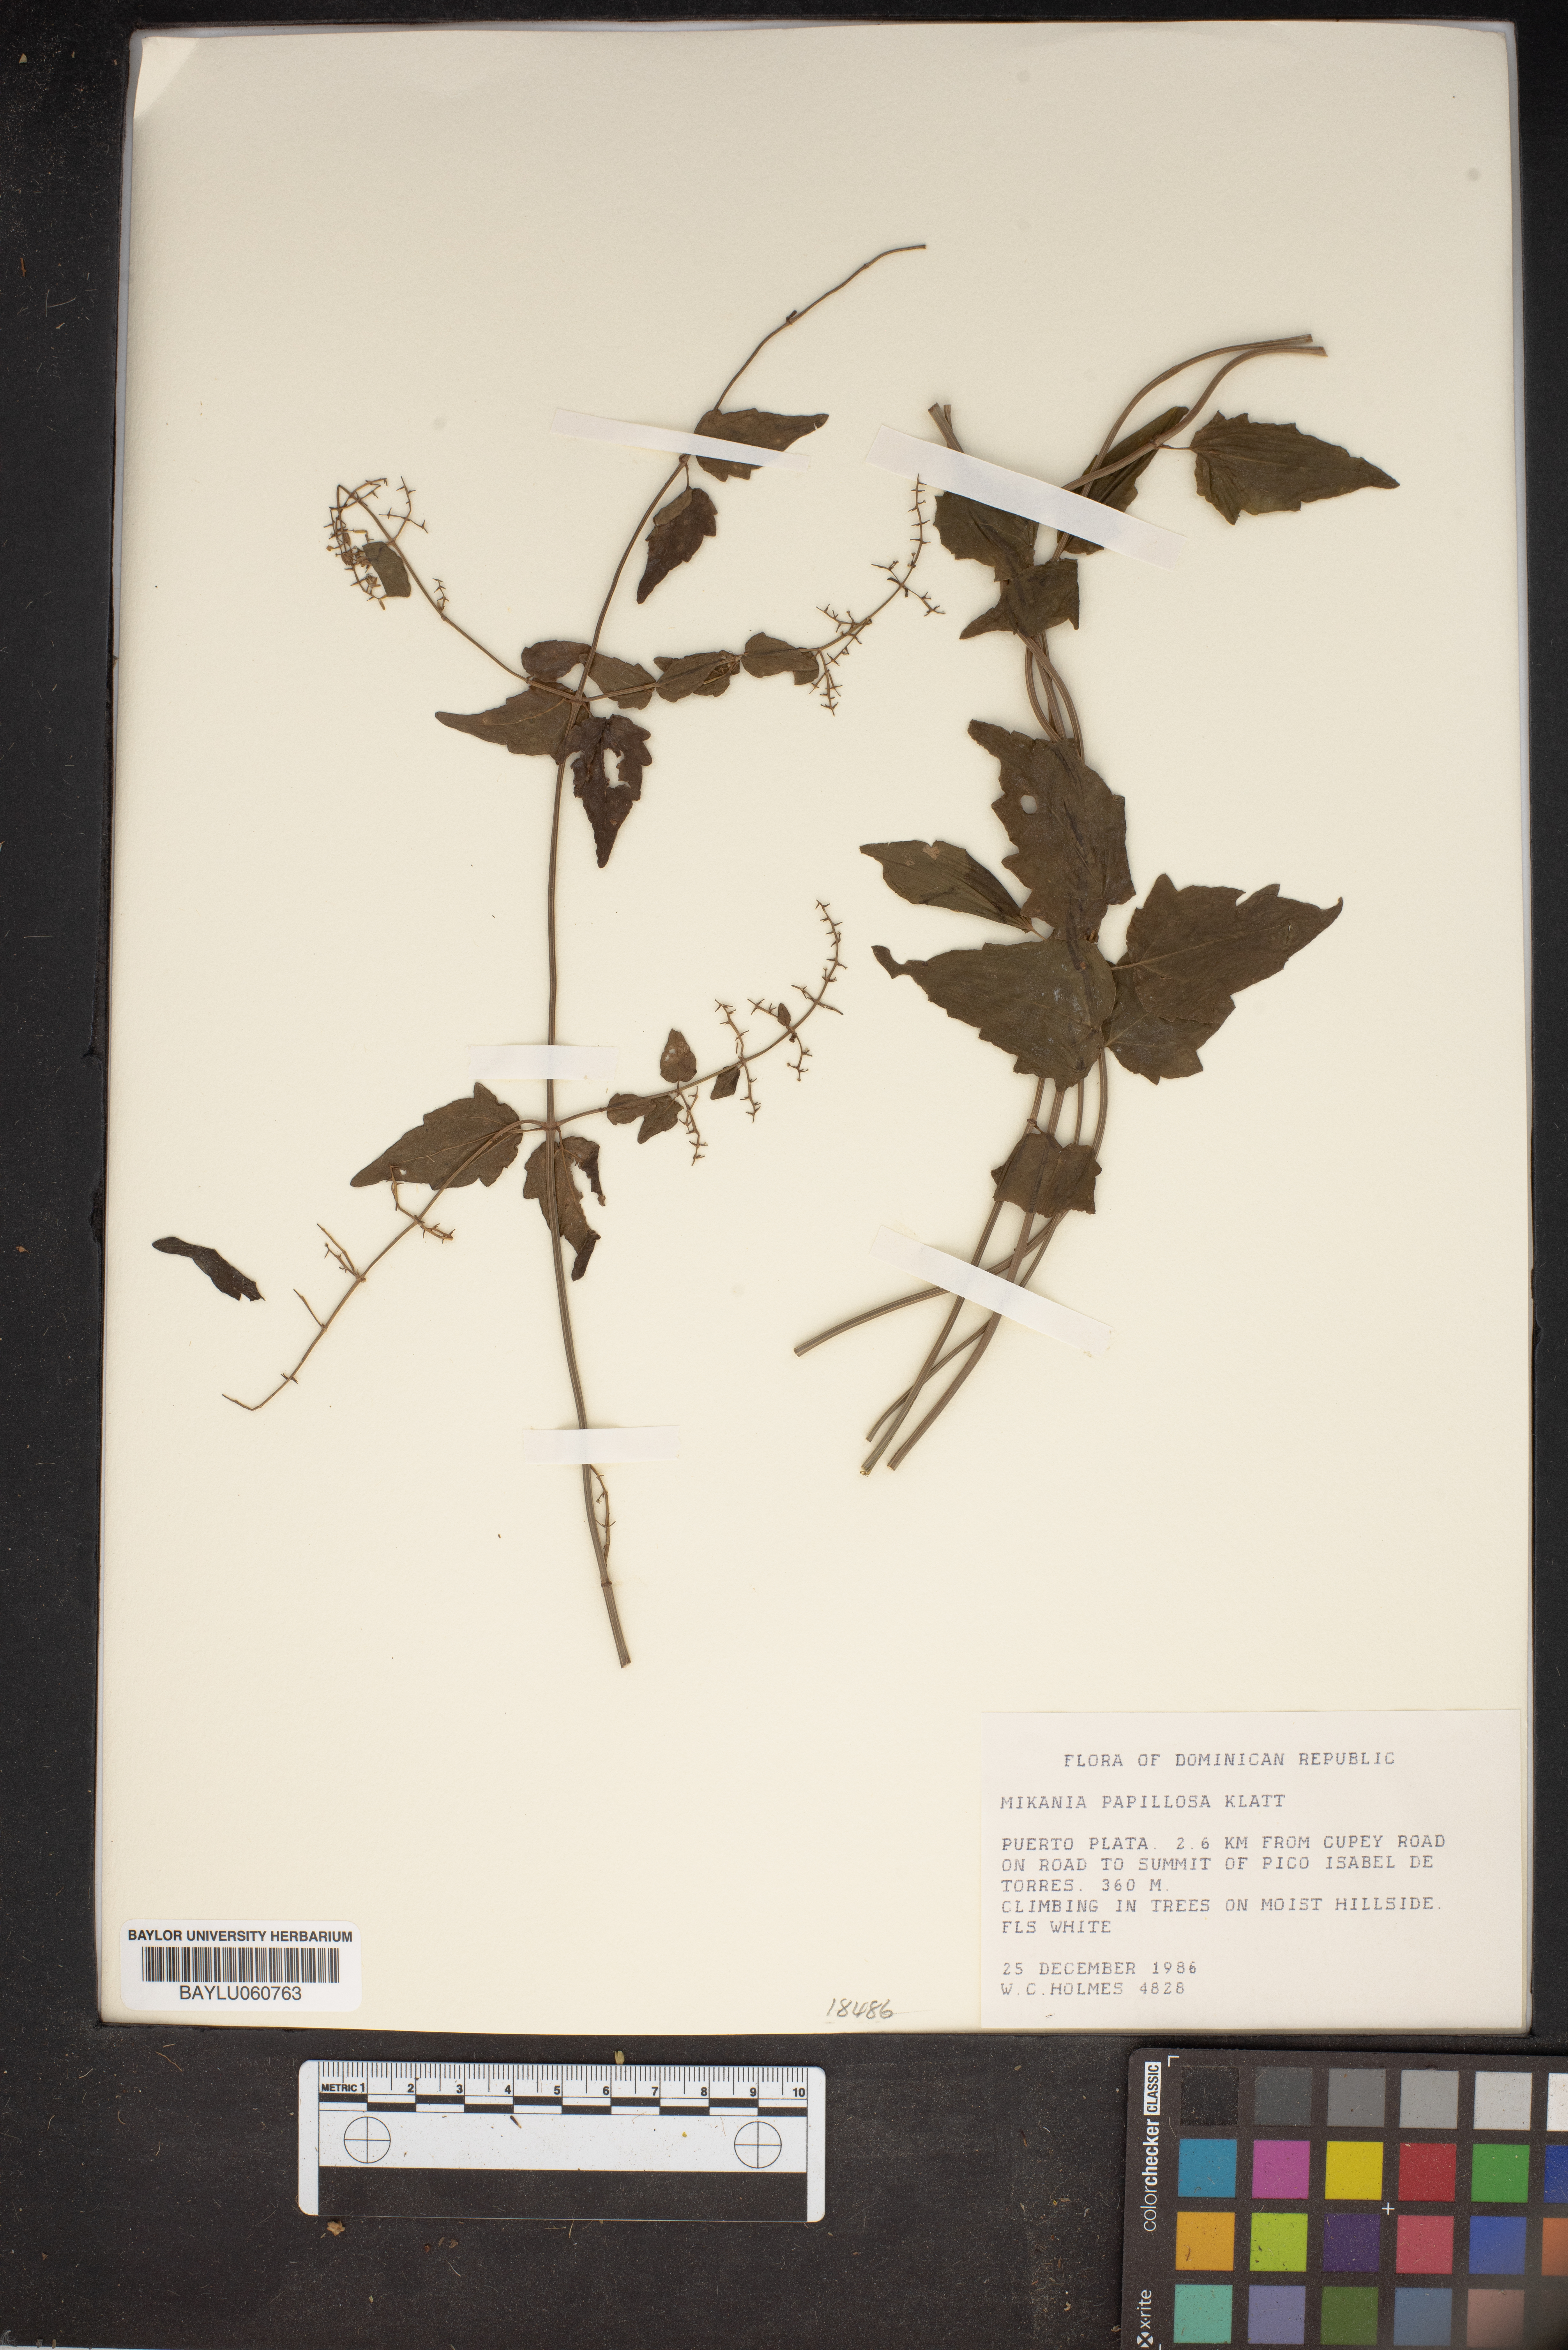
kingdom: Plantae
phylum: Tracheophyta
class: Magnoliopsida
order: Asterales
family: Asteraceae
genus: Mikania
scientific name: Mikania papillosa
